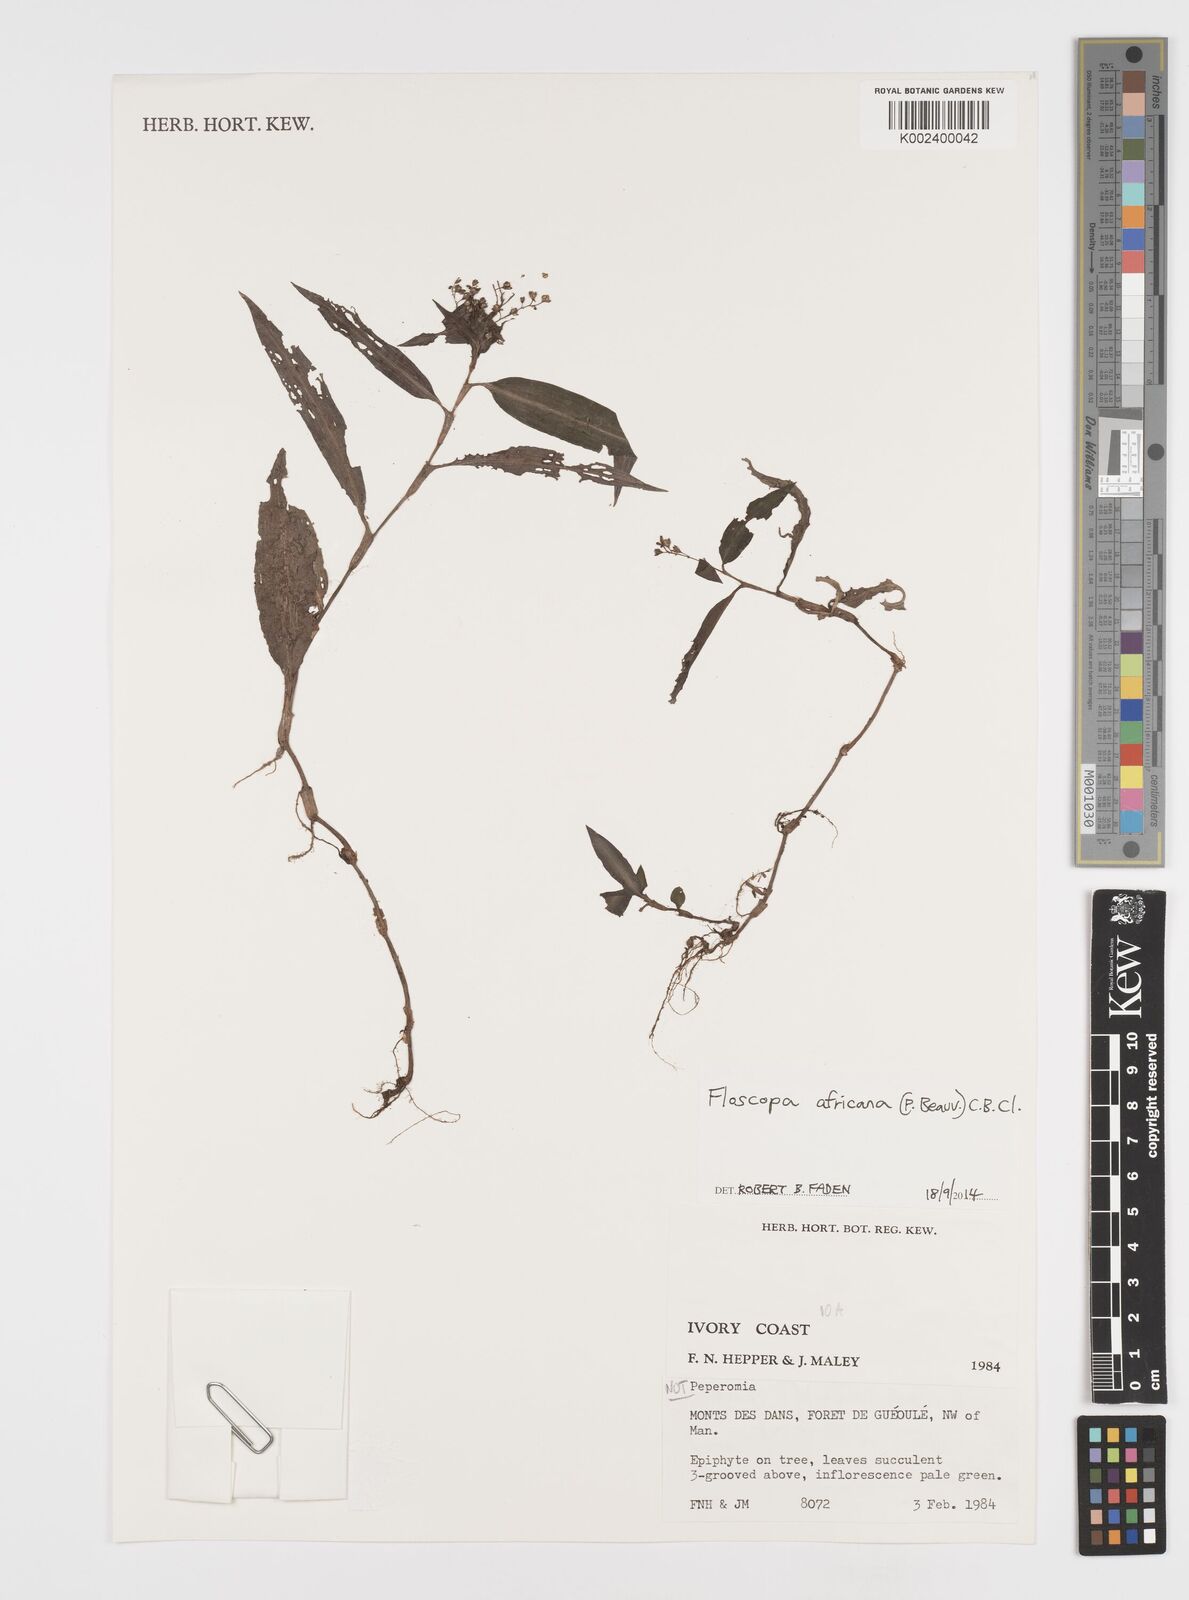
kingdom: Plantae
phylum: Tracheophyta
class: Liliopsida
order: Commelinales
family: Commelinaceae
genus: Floscopa
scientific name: Floscopa africana
